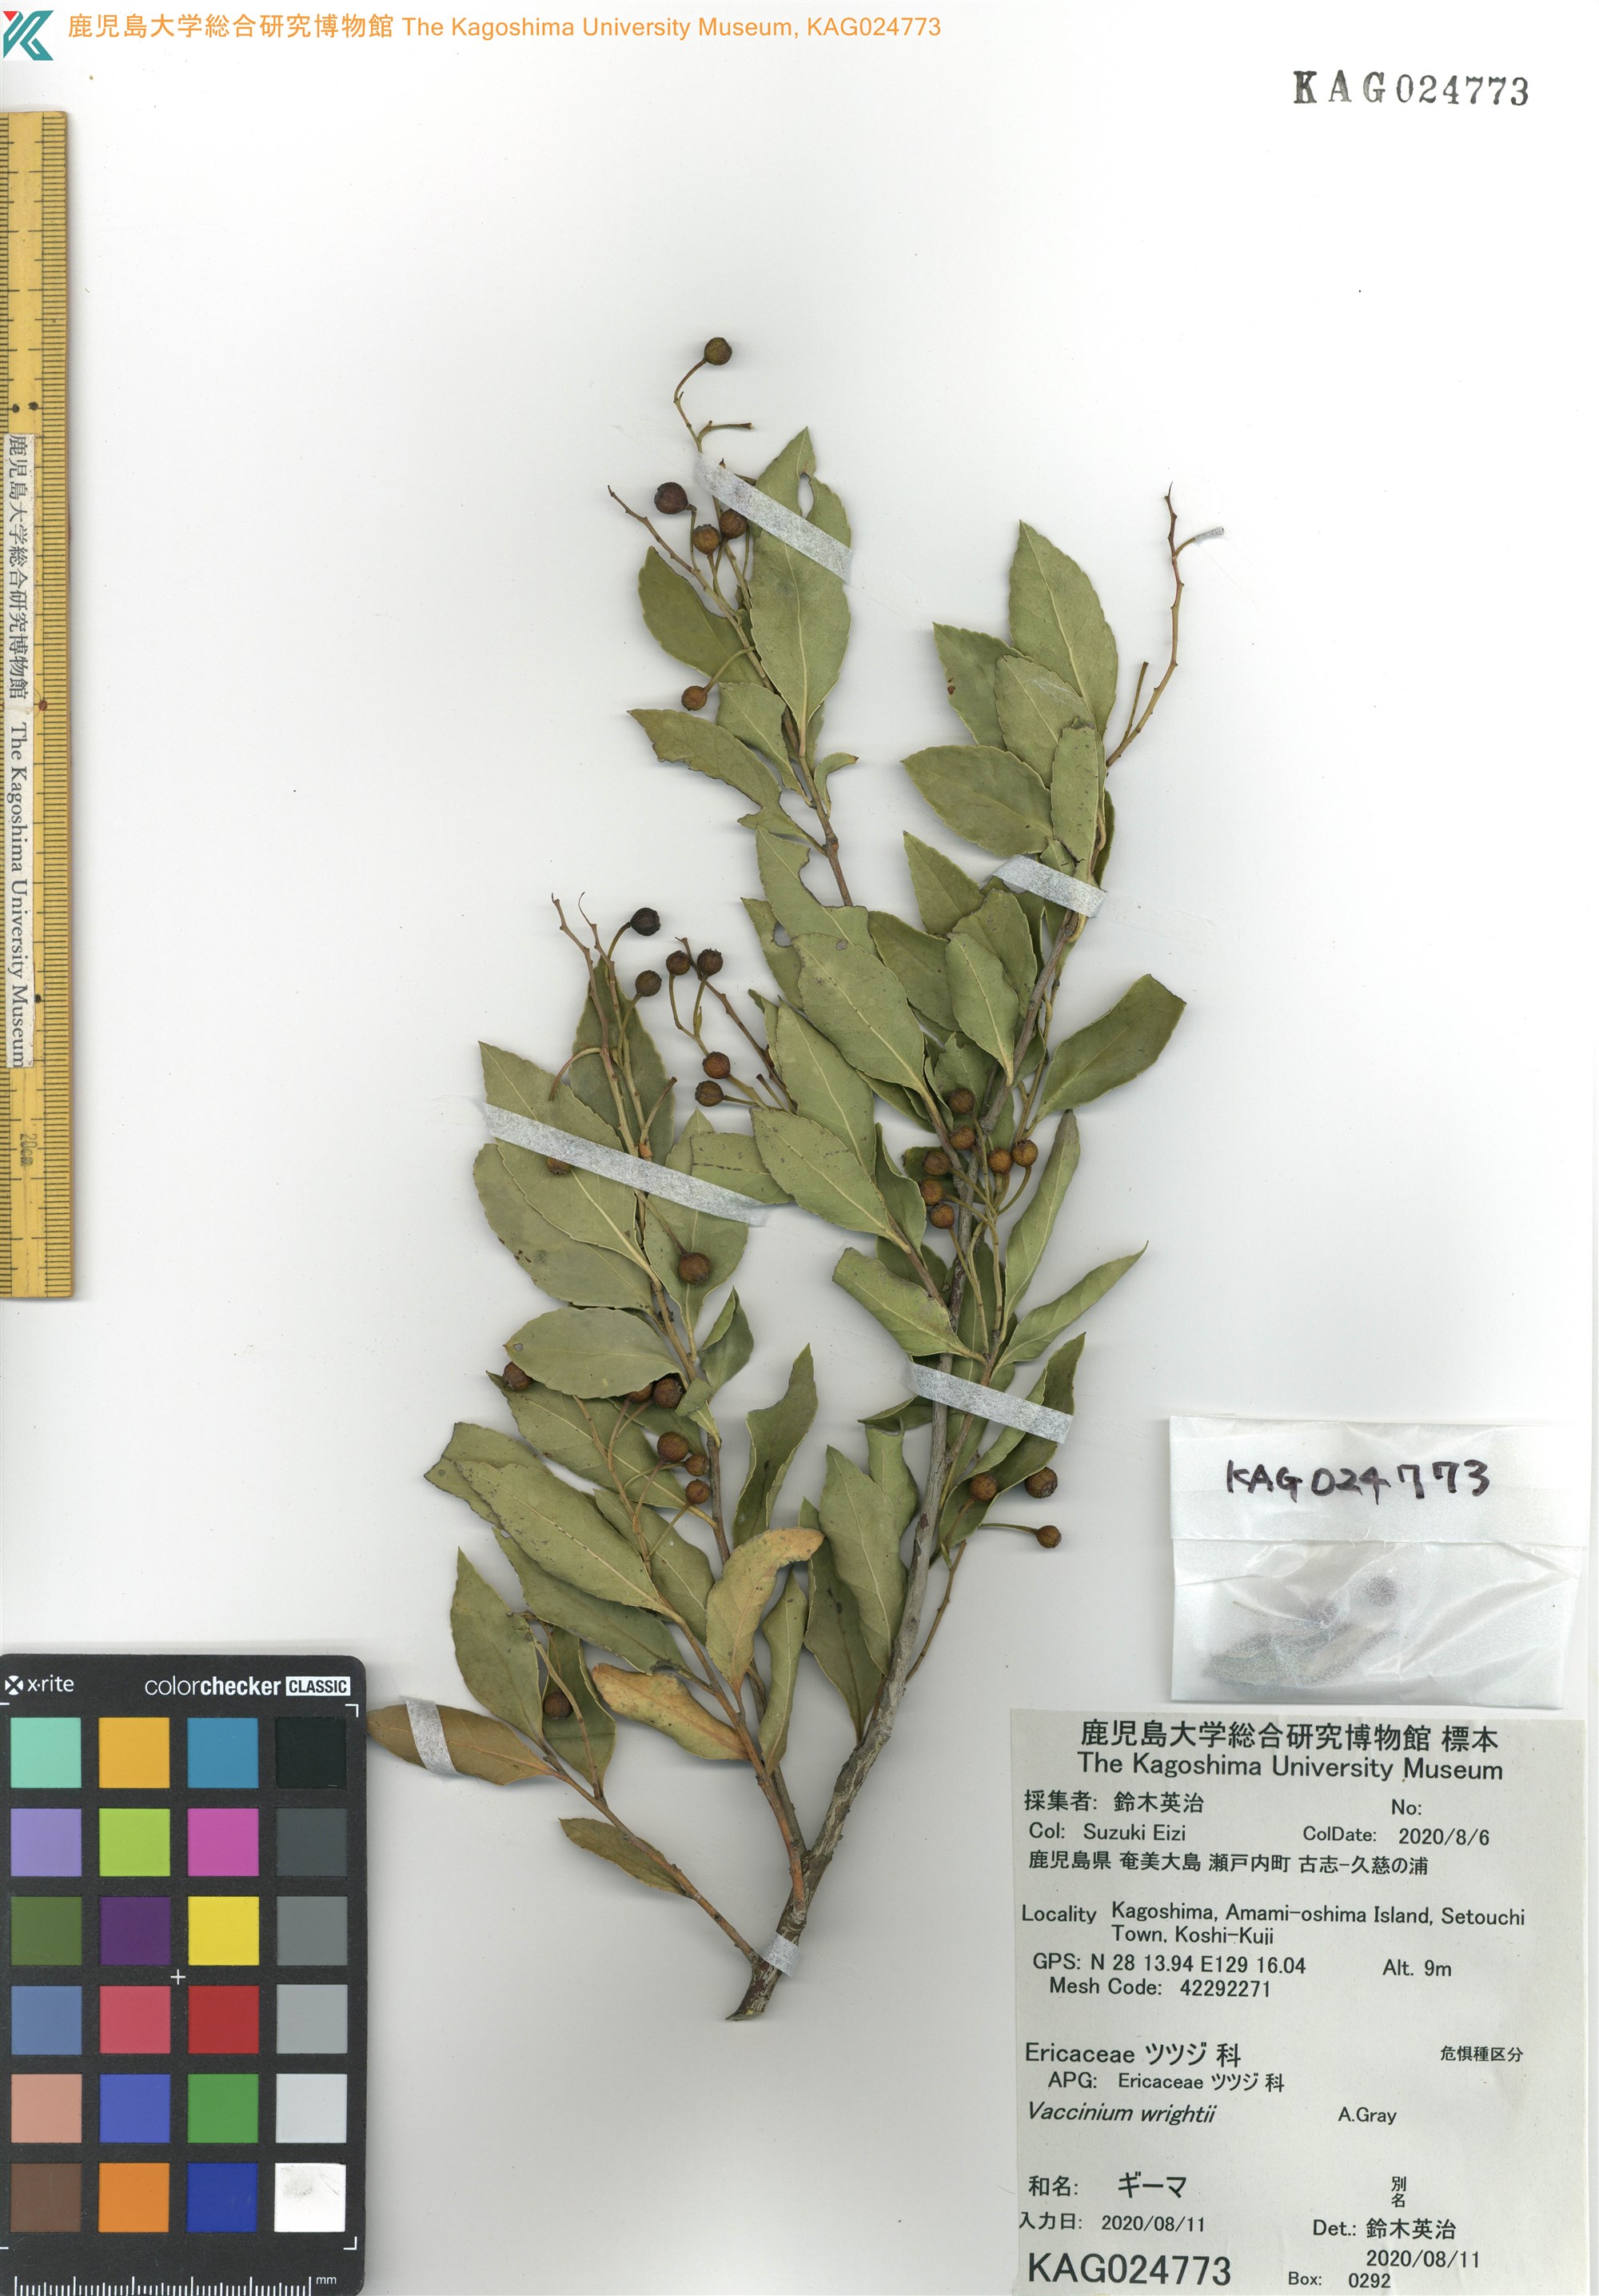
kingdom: Plantae
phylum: Tracheophyta
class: Magnoliopsida
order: Ericales
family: Ericaceae
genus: Vaccinium
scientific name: Vaccinium wrightii
